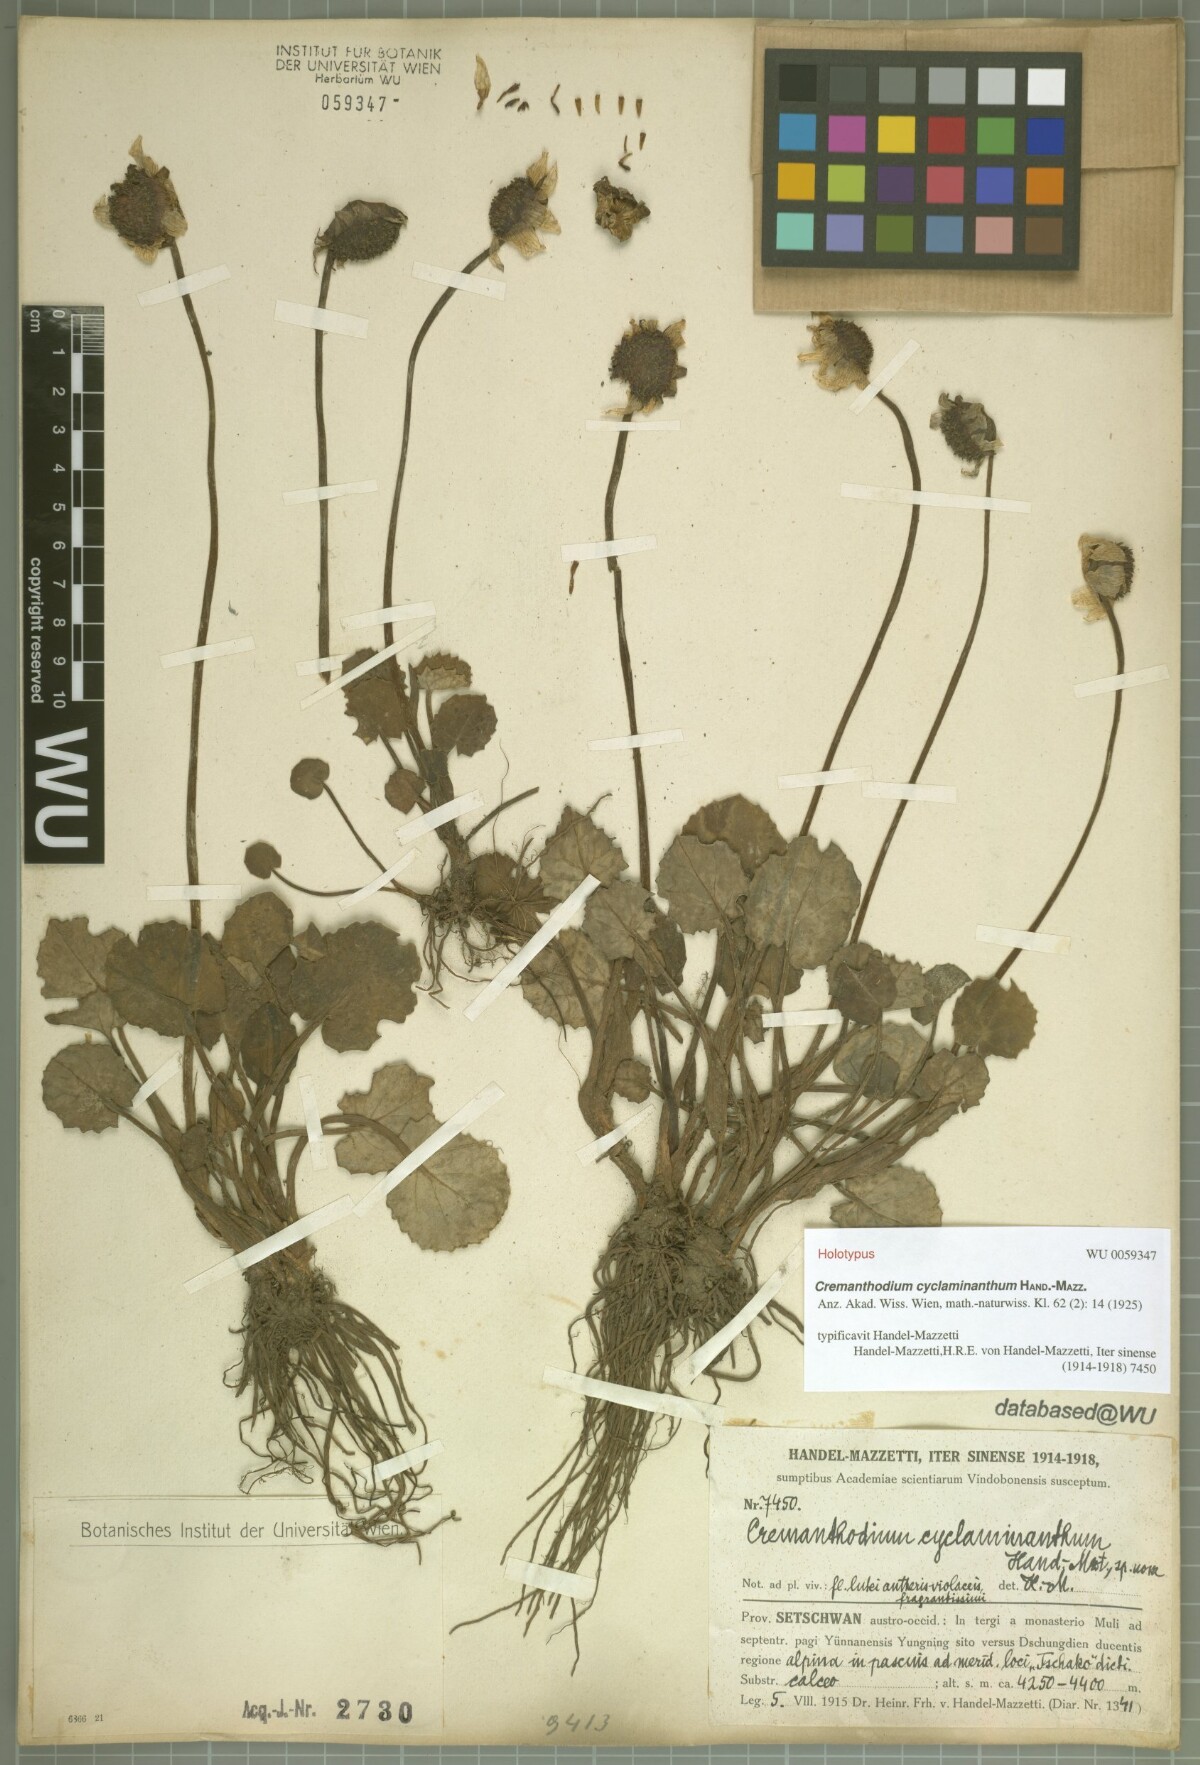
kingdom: Plantae
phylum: Tracheophyta
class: Magnoliopsida
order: Asterales
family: Asteraceae
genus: Cremanthodium
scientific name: Cremanthodium cyclaminanthum
